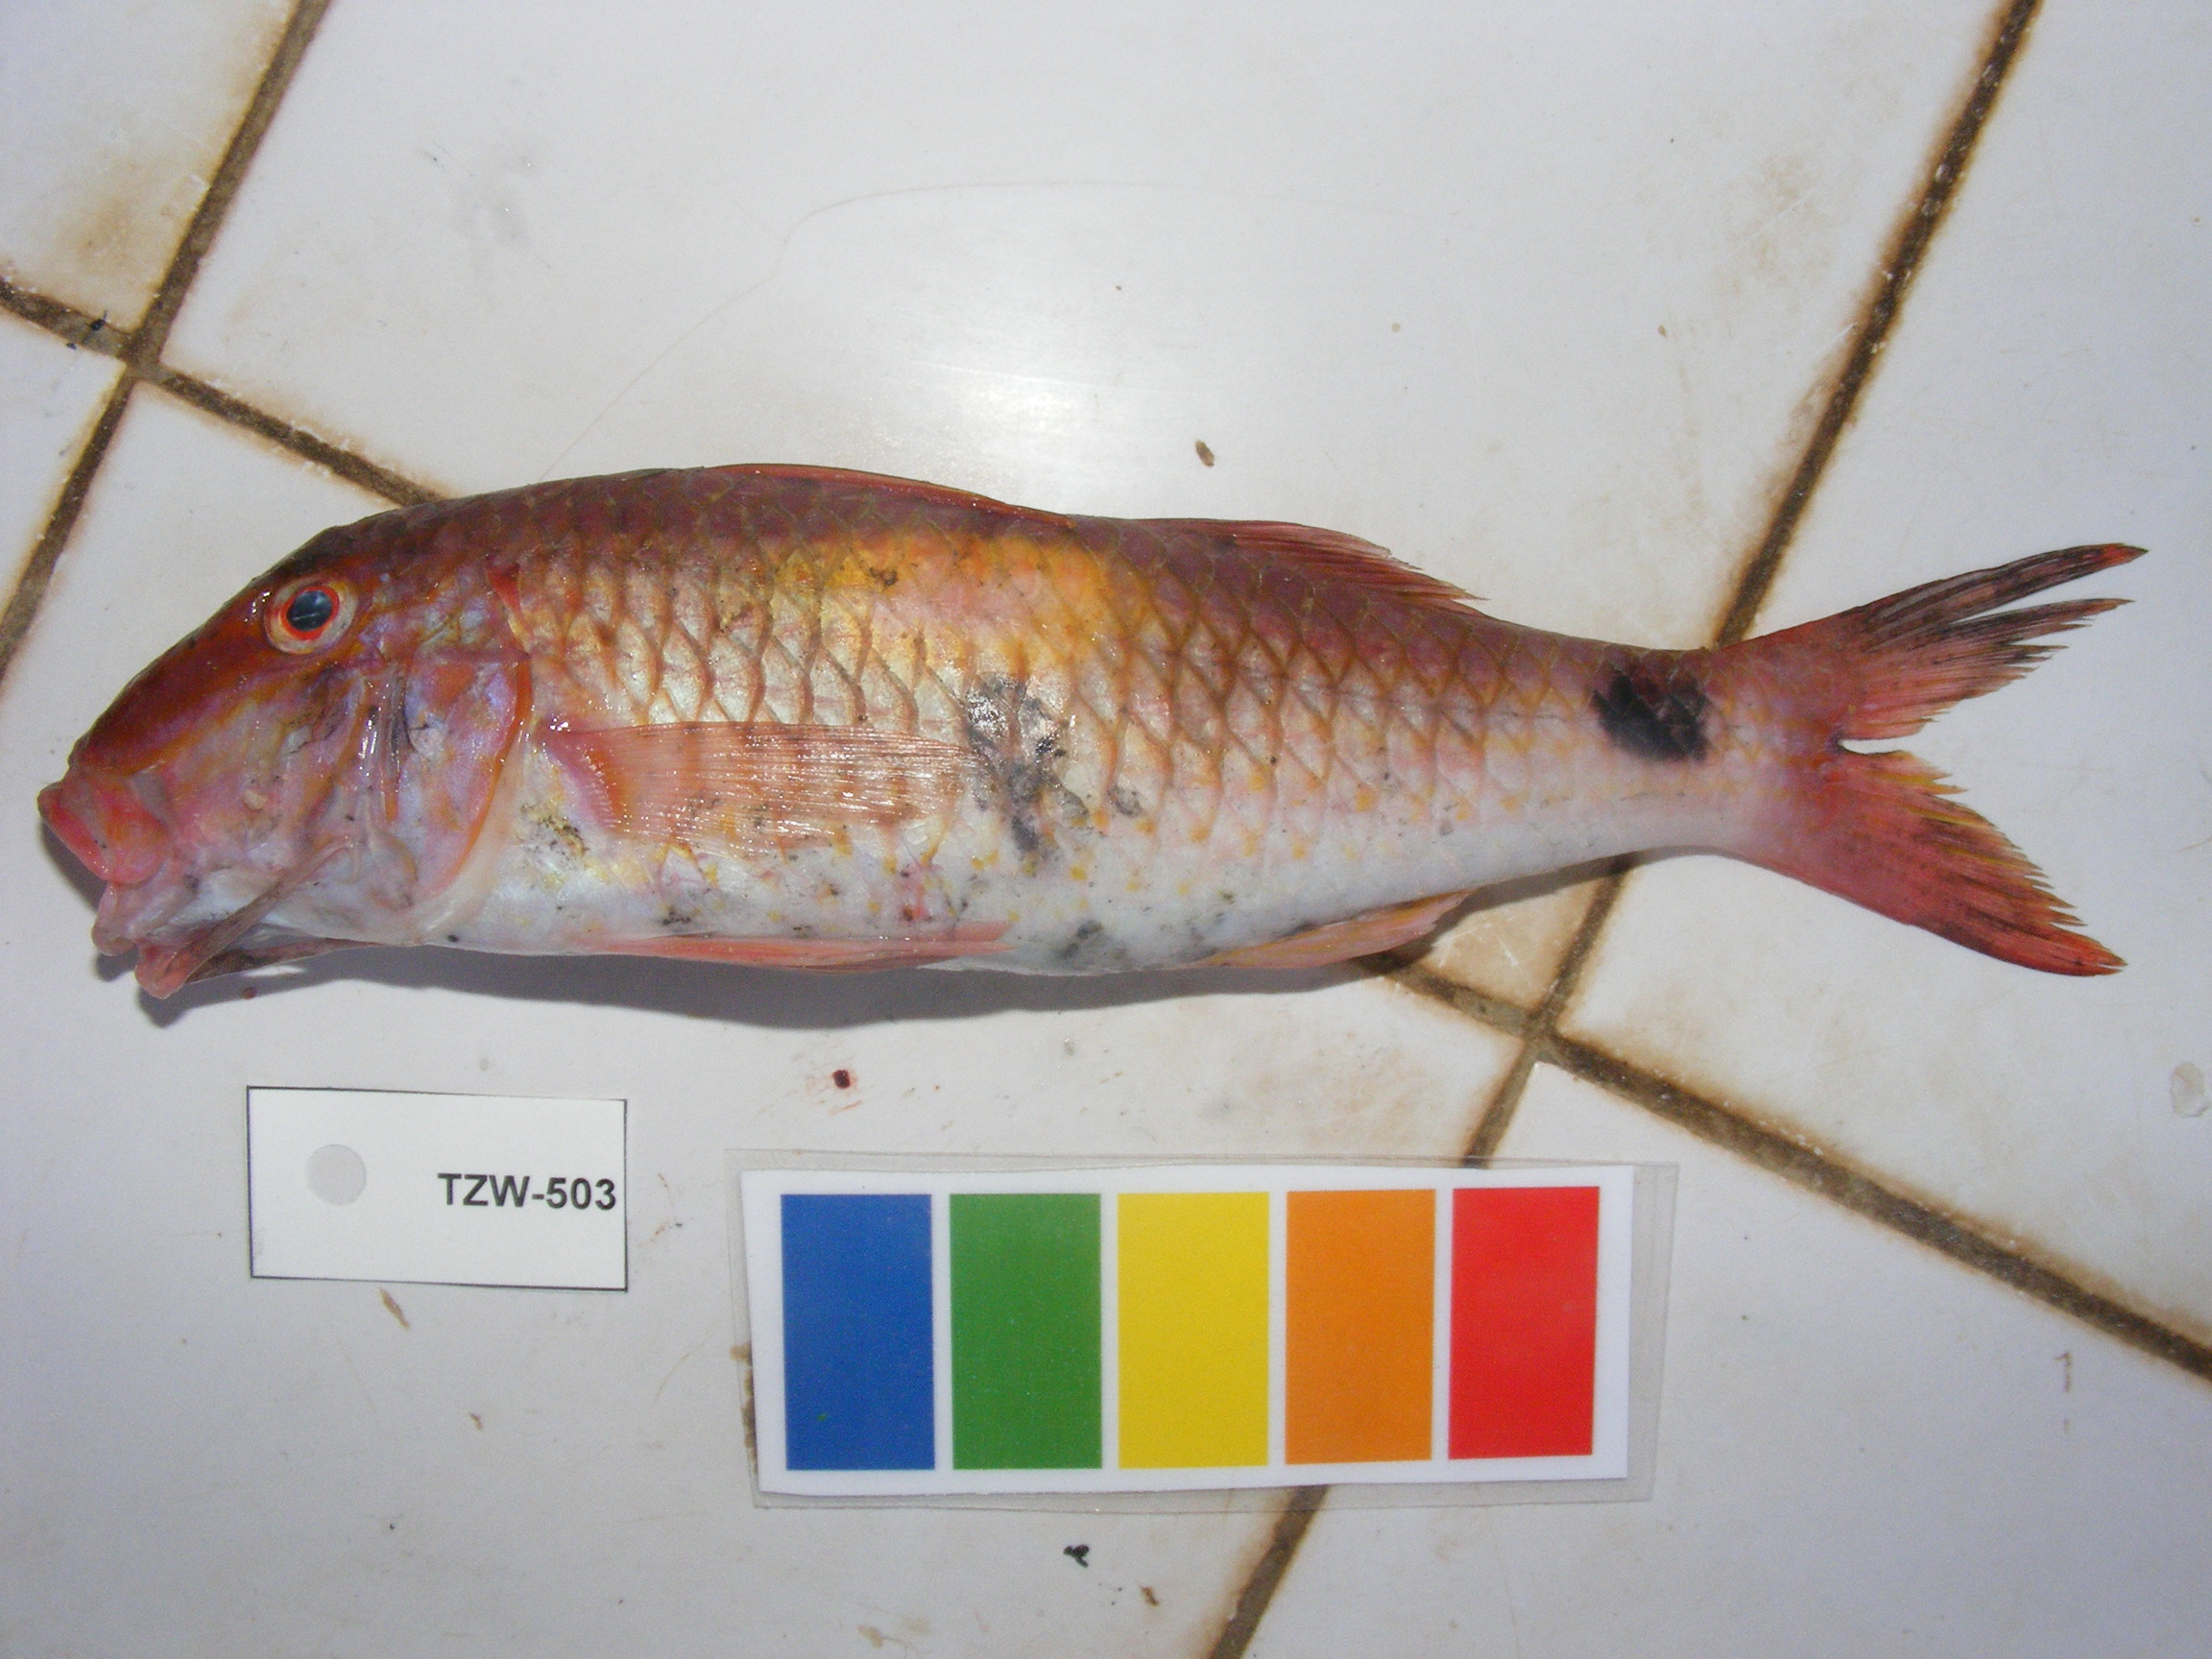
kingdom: Animalia
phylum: Chordata
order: Perciformes
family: Mullidae
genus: Parupeneus
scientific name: Parupeneus indicus
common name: Indian goatfish
